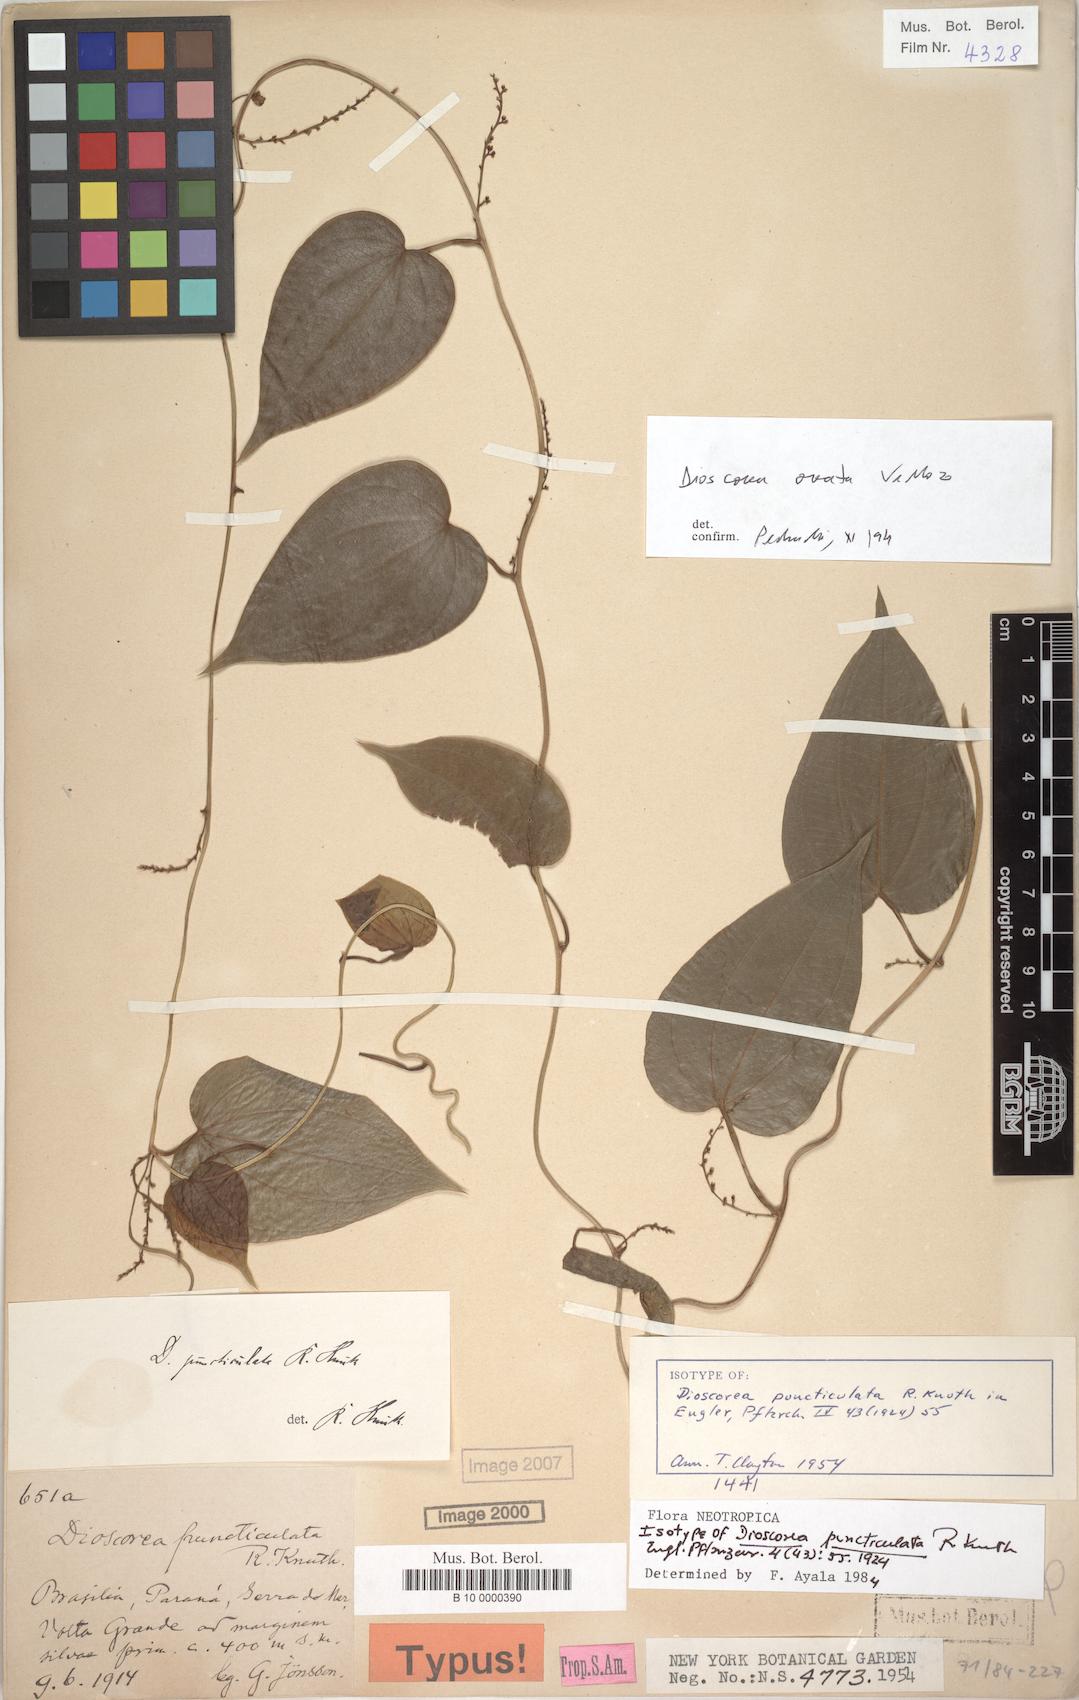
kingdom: Plantae
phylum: Tracheophyta
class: Liliopsida
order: Dioscoreales
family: Dioscoreaceae
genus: Dioscorea
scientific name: Dioscorea delicata
